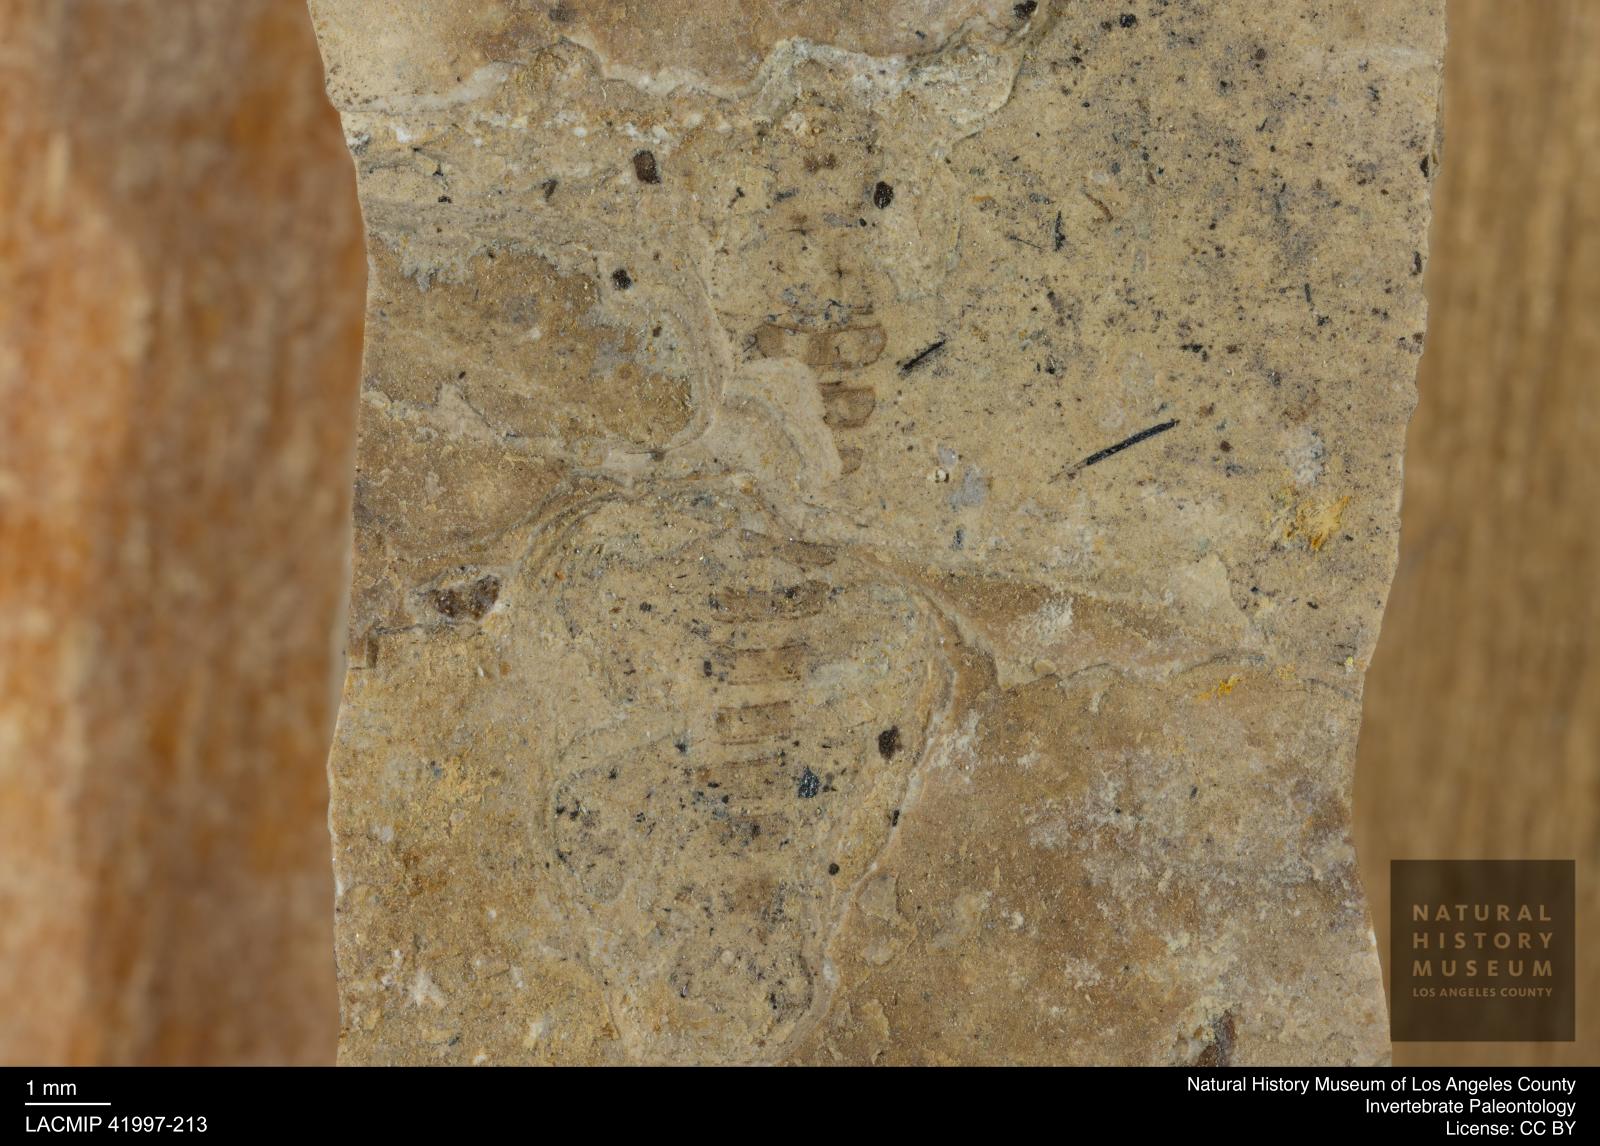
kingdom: Animalia
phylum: Arthropoda
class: Insecta
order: Diptera
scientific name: Diptera
